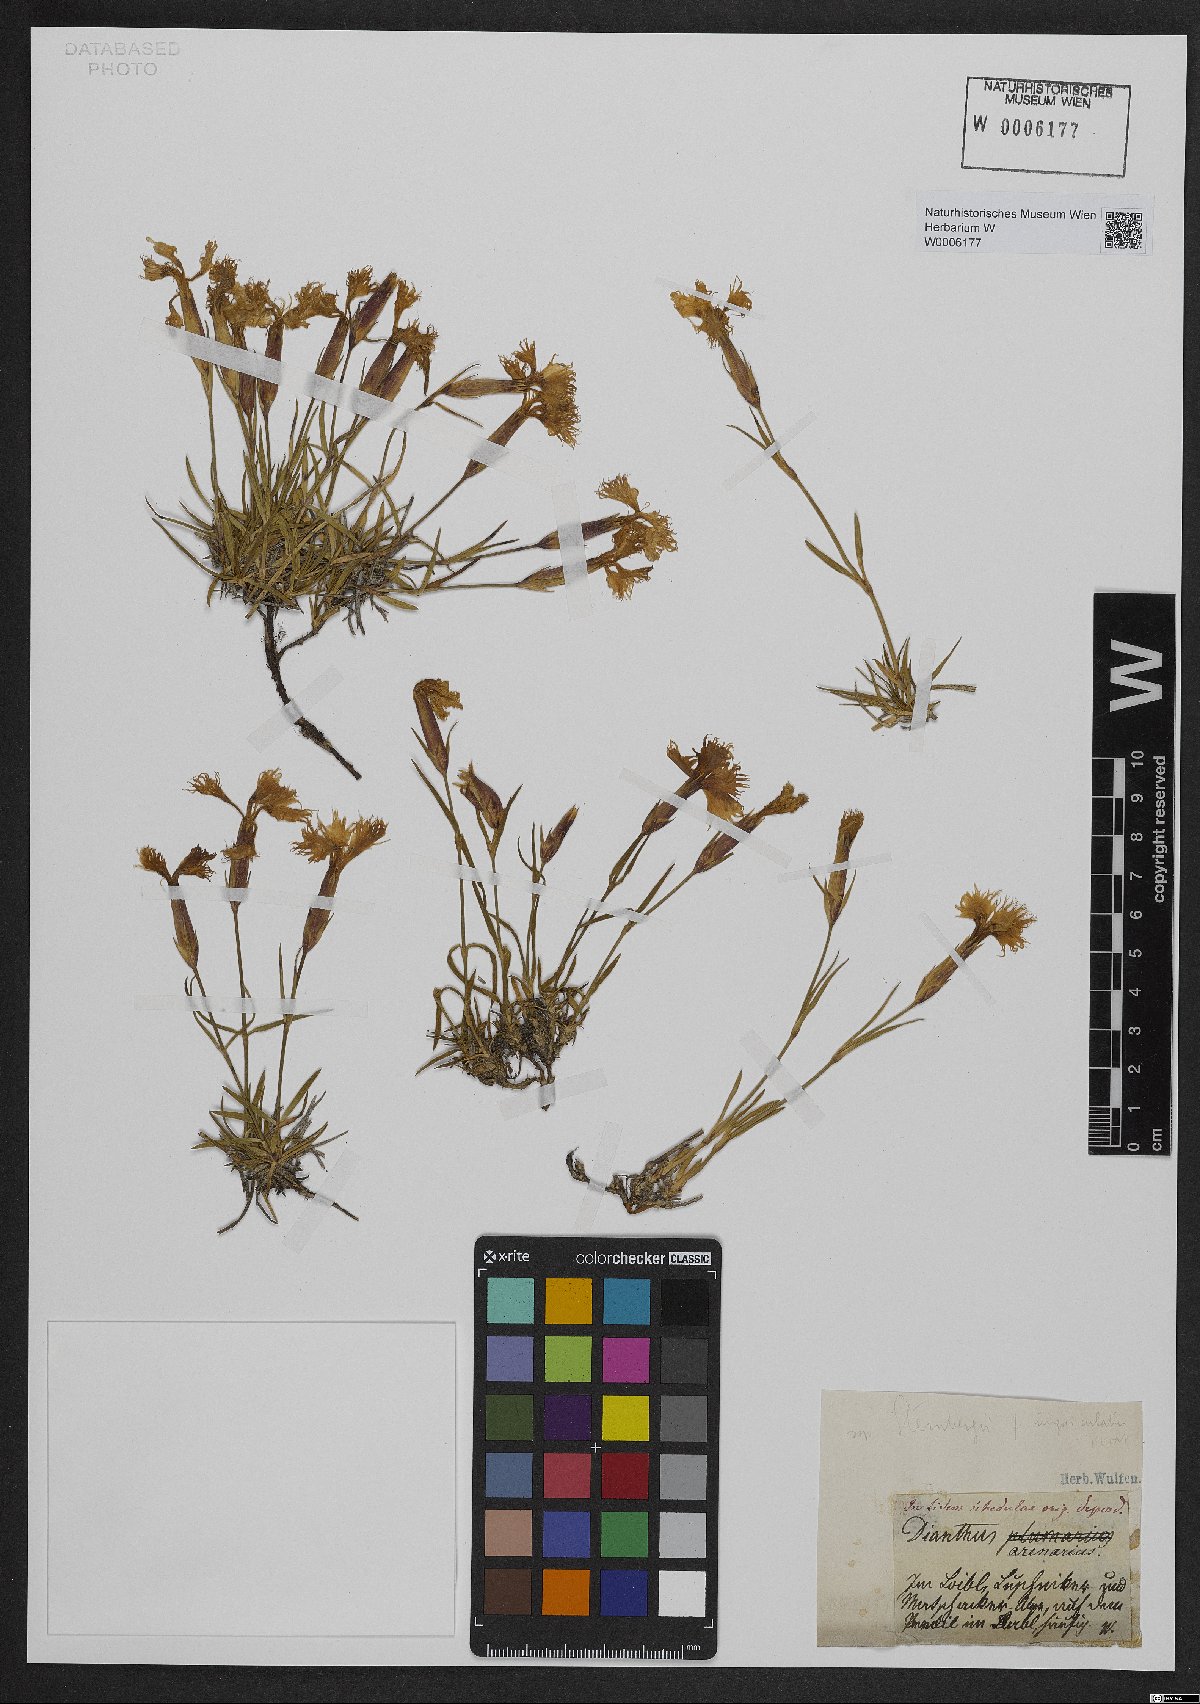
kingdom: Plantae
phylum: Tracheophyta
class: Magnoliopsida
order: Caryophyllales
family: Caryophyllaceae
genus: Dianthus
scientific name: Dianthus arenarius
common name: Stone pink
